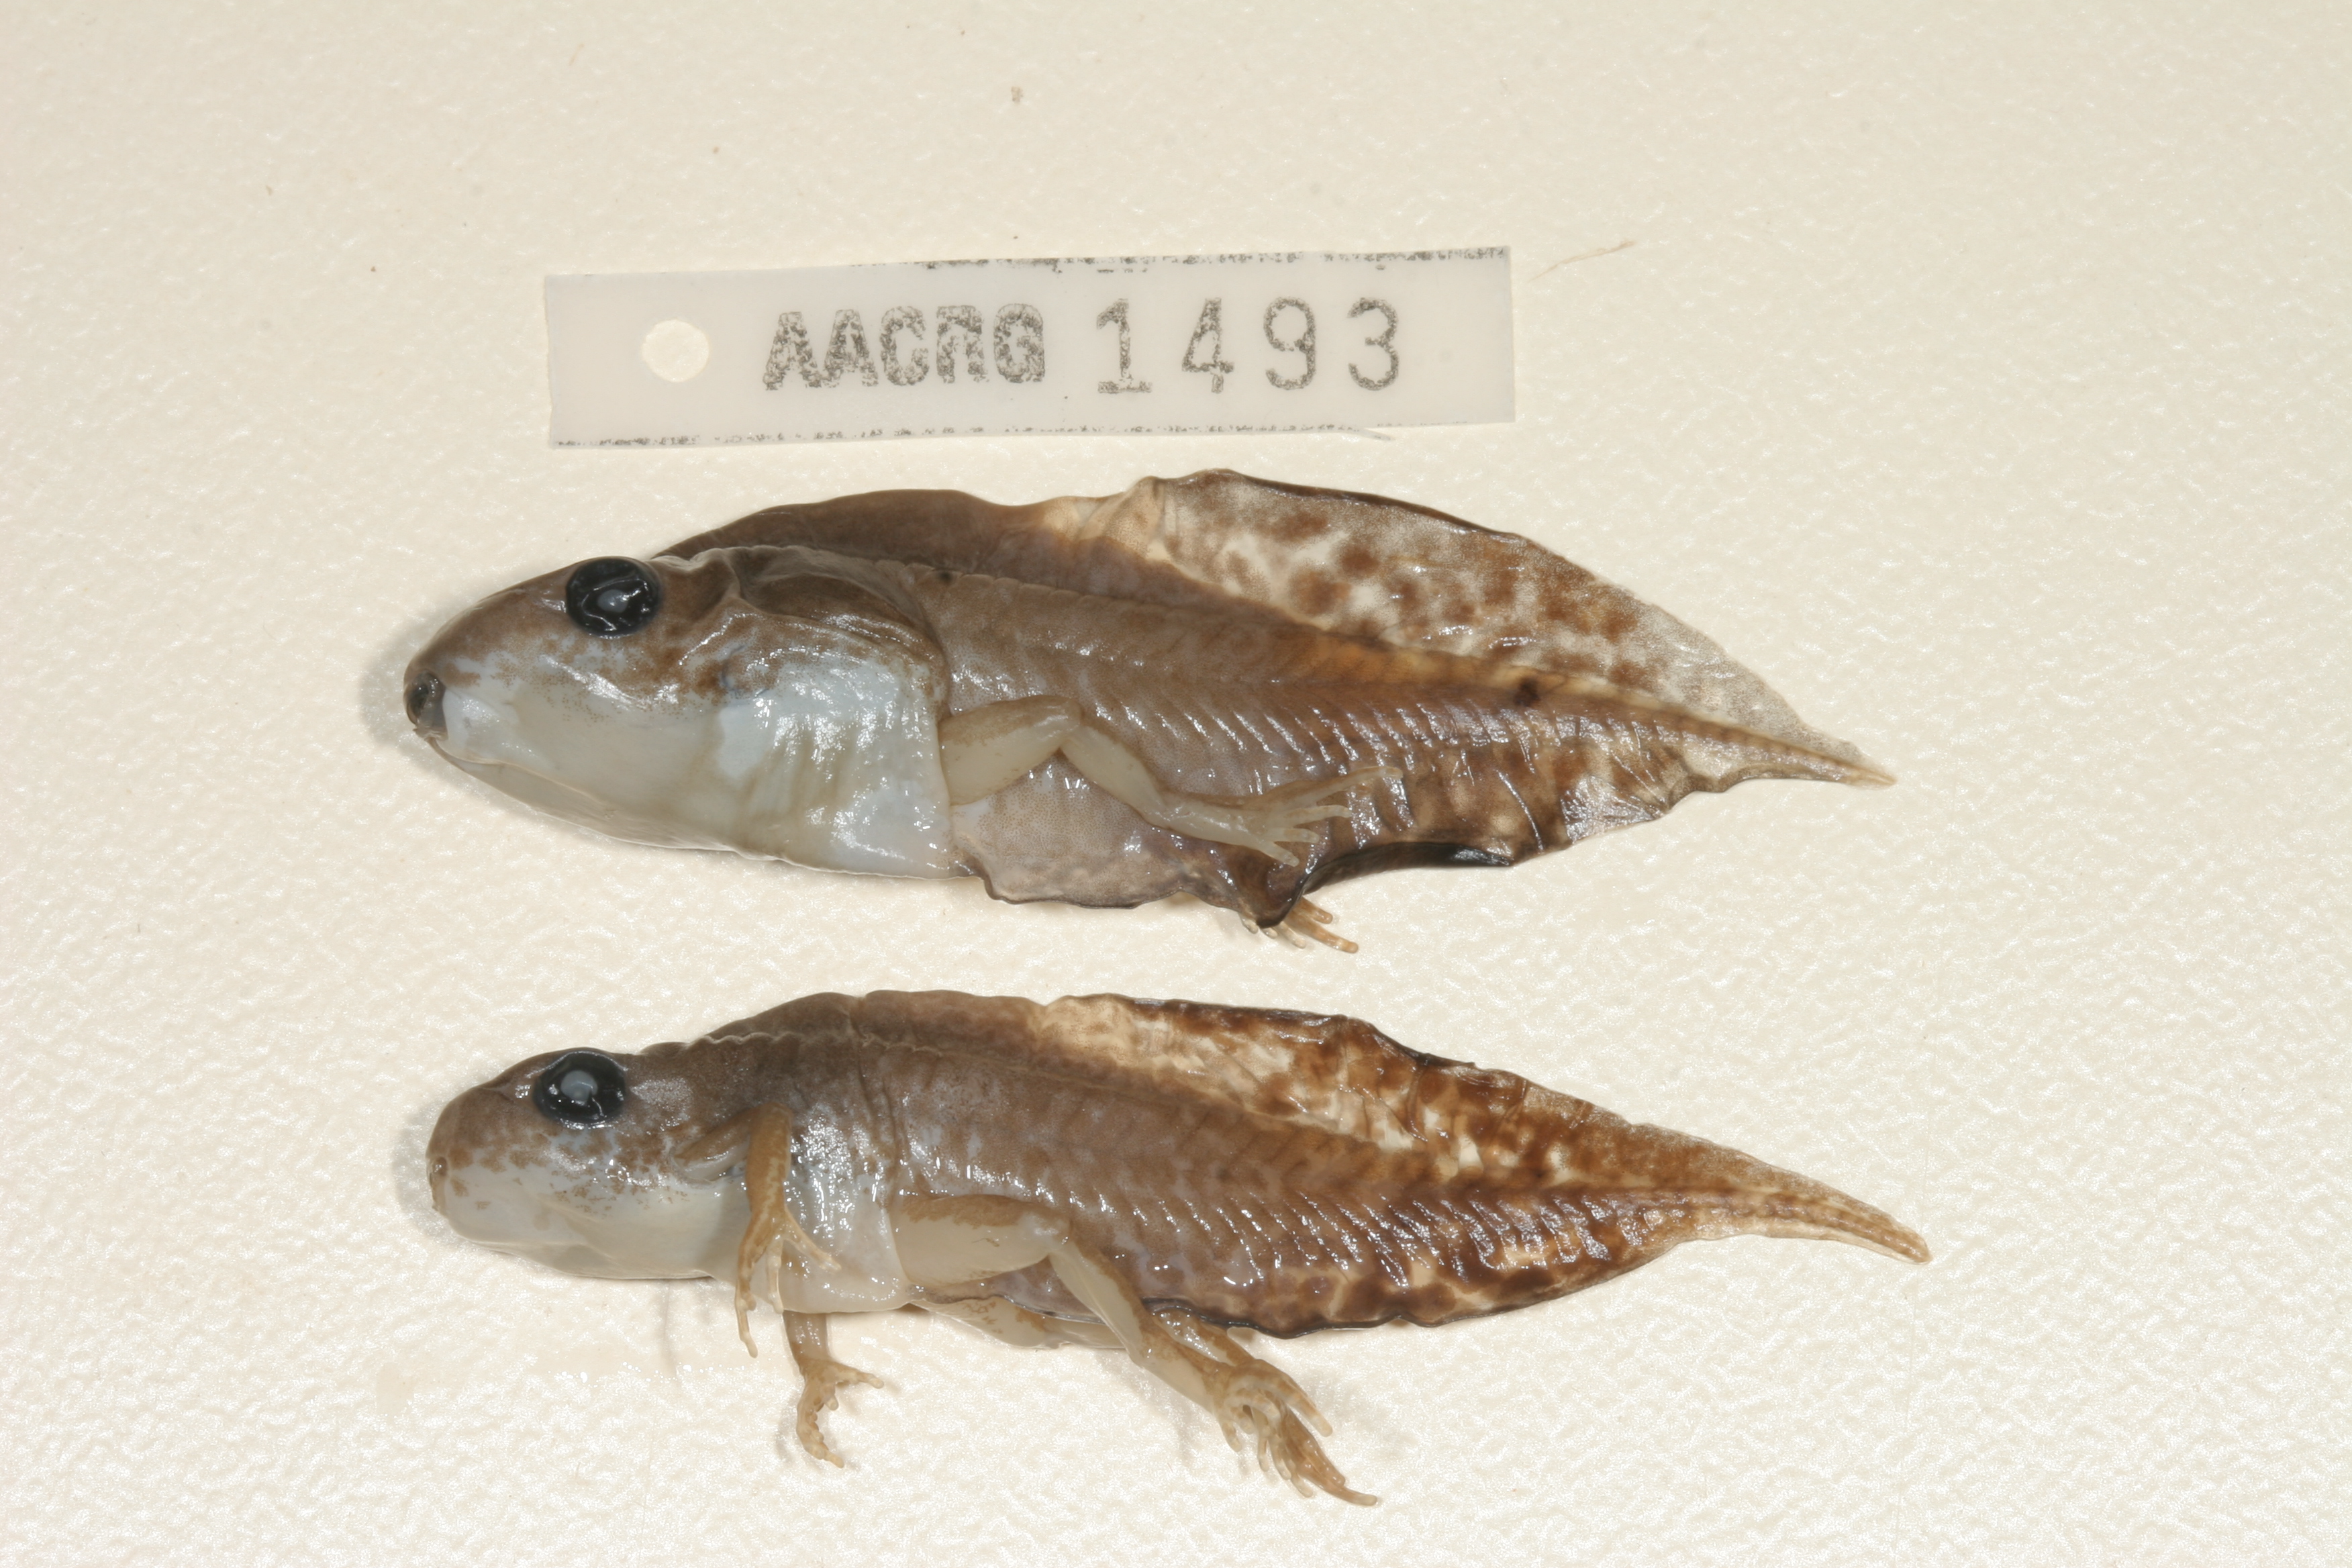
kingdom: Animalia
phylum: Chordata
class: Amphibia
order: Anura
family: Hyperoliidae
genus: Kassina
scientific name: Kassina senegalensis
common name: Senegal land frog
